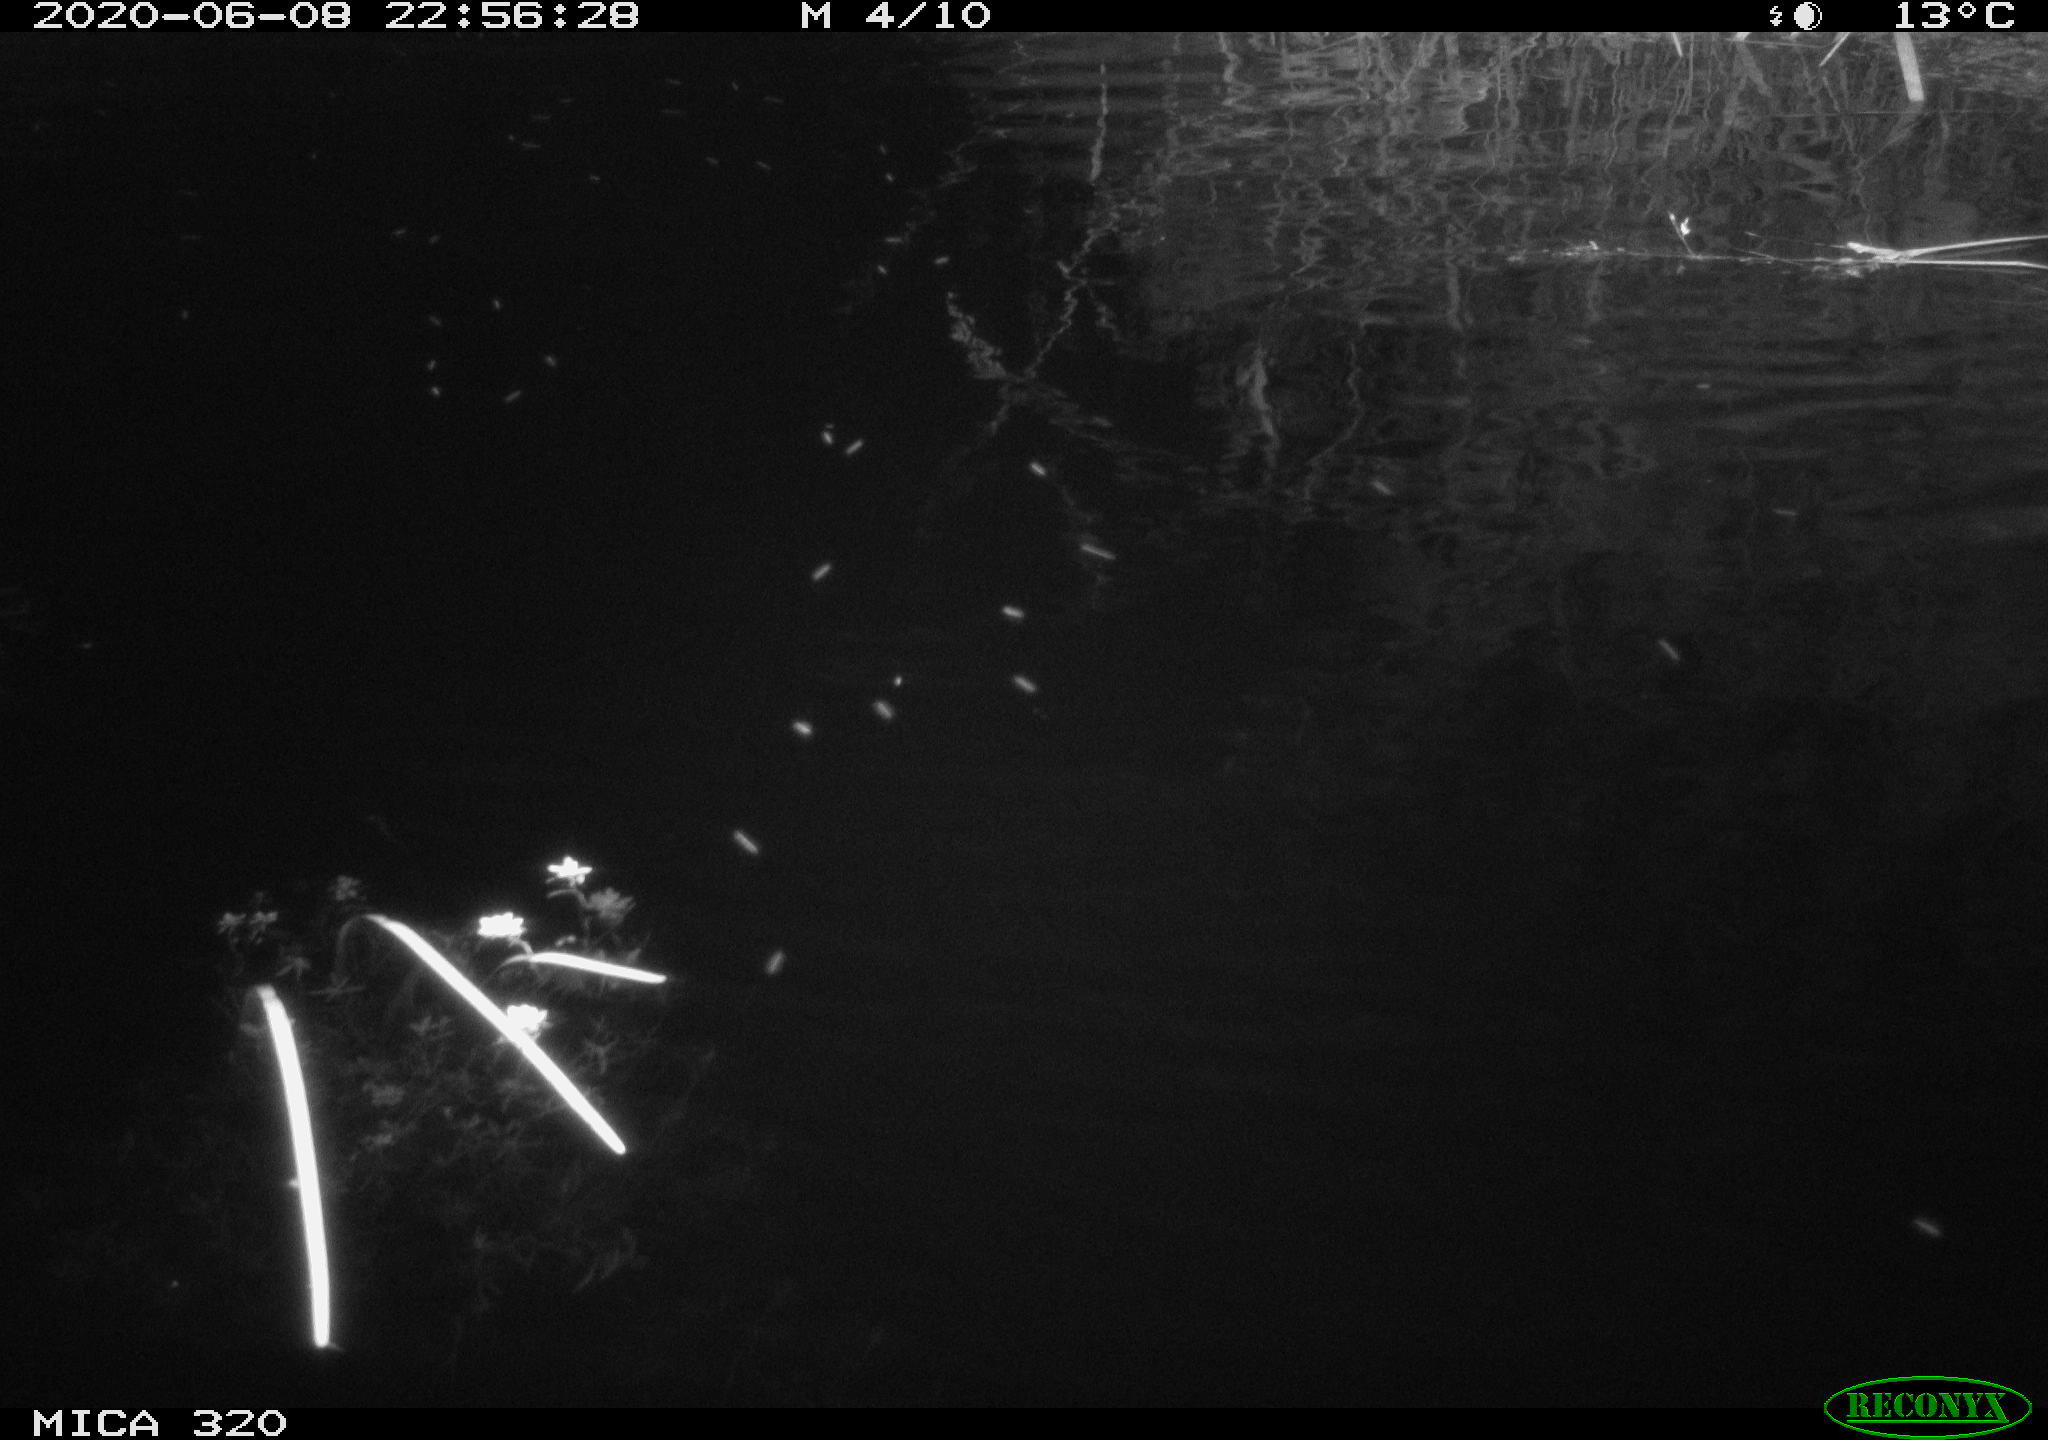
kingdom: Animalia
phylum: Chordata
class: Aves
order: Anseriformes
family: Anatidae
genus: Anas
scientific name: Anas platyrhynchos
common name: Mallard
